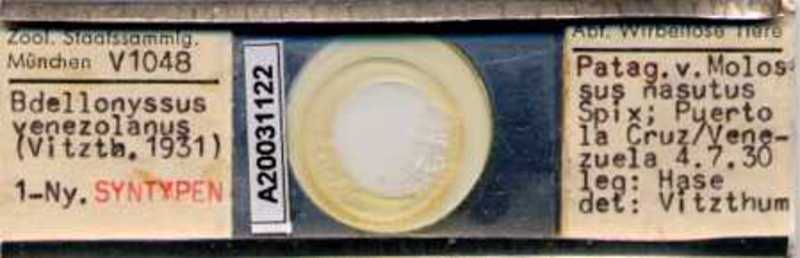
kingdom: Animalia
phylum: Arthropoda
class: Arachnida
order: Mesostigmata
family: Macronyssidae
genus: Chiroptonyssus
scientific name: Chiroptonyssus venezolanus
